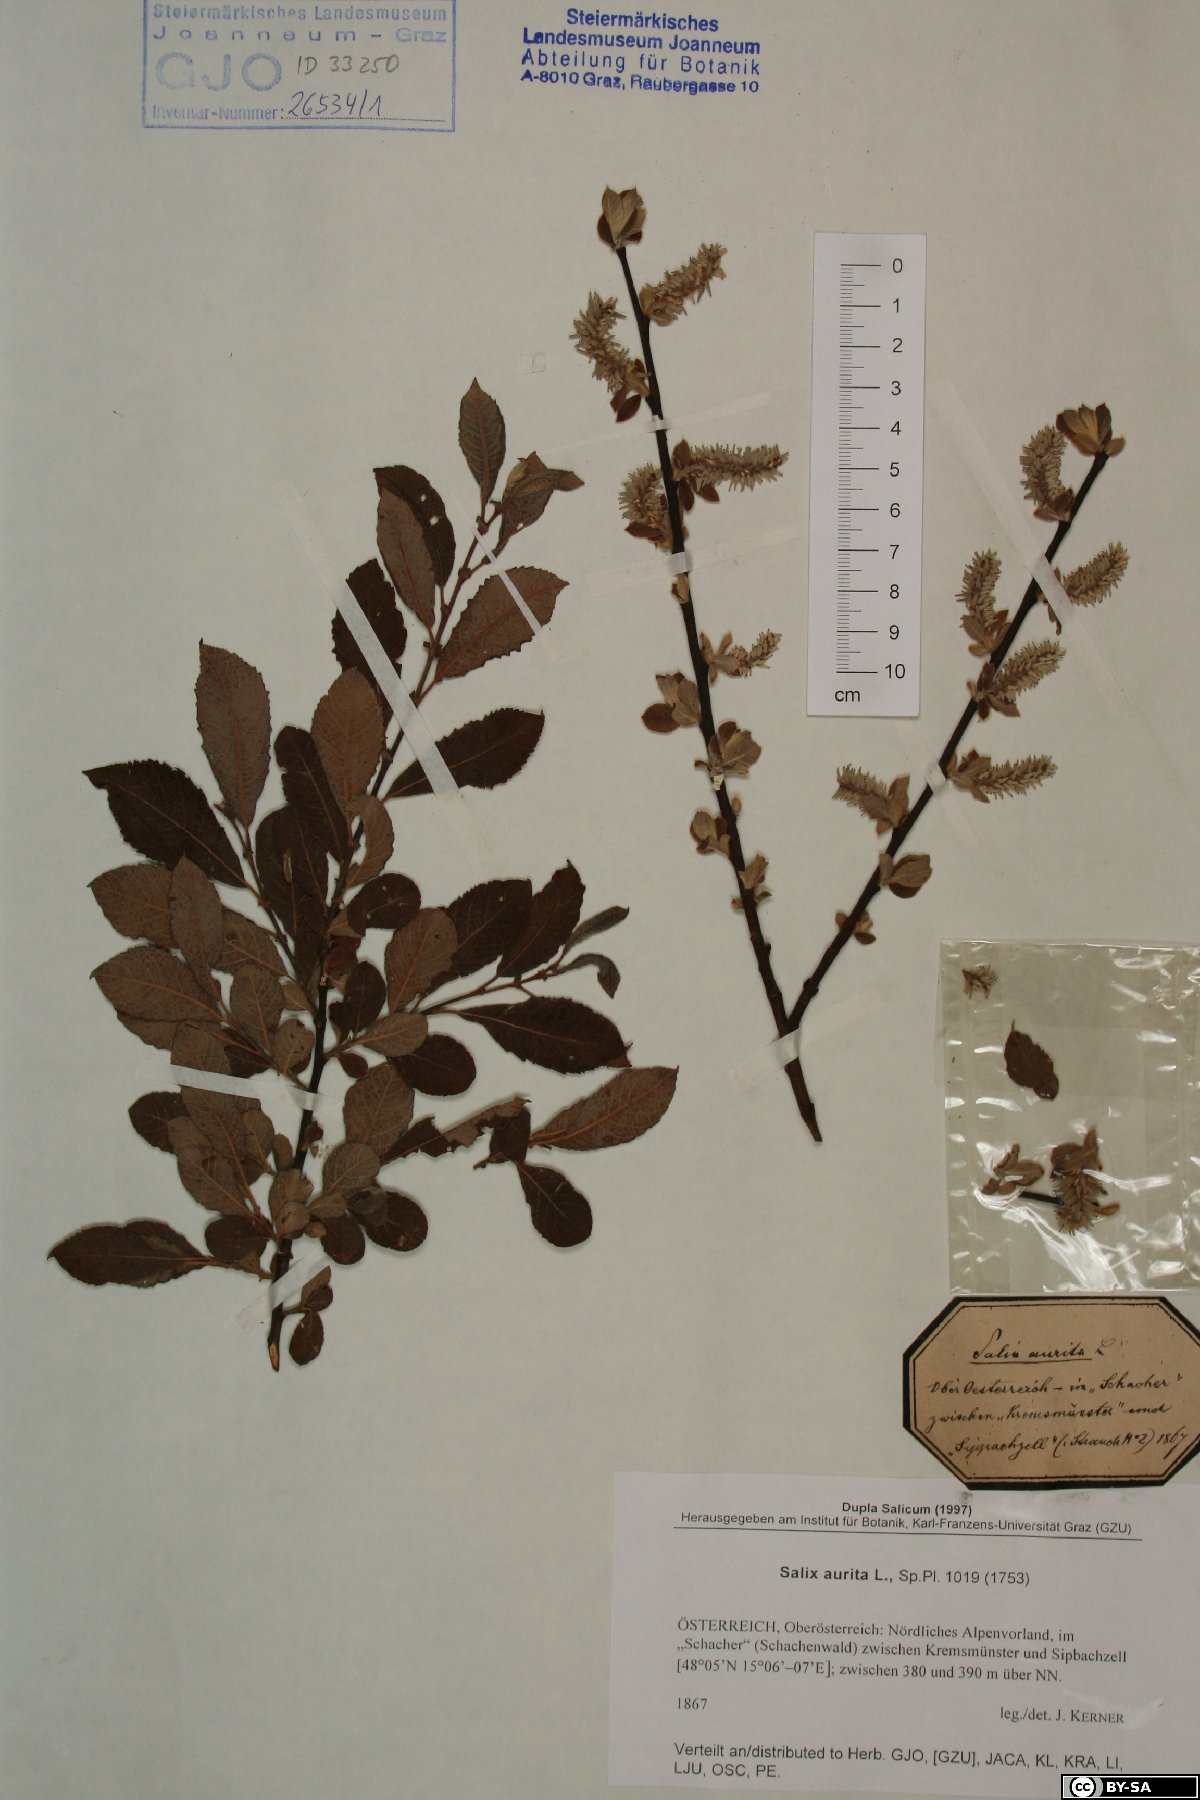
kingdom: Plantae
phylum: Tracheophyta
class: Magnoliopsida
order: Malpighiales
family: Salicaceae
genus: Salix
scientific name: Salix aurita
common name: Eared willow
